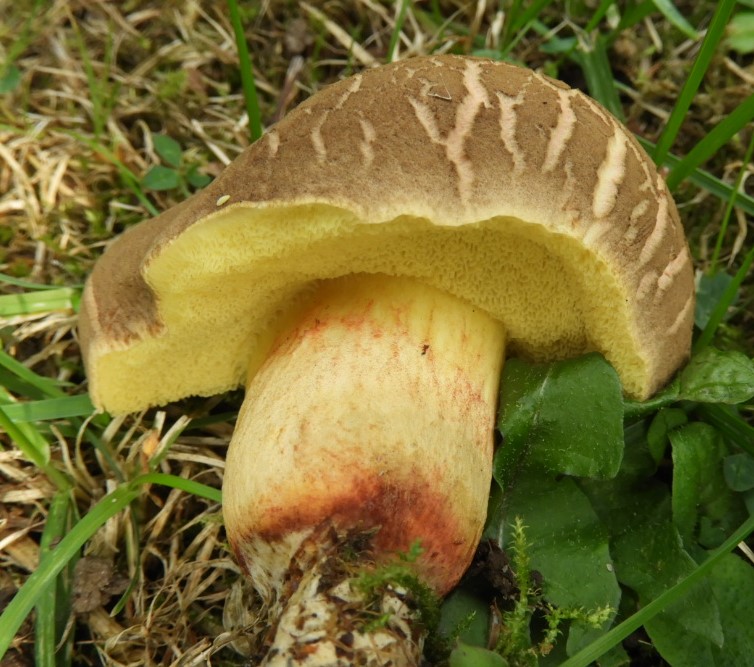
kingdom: Fungi
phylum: Basidiomycota
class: Agaricomycetes
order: Boletales
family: Boletaceae
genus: Xerocomellus
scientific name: Xerocomellus porosporus
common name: hvidsprukken rørhat
